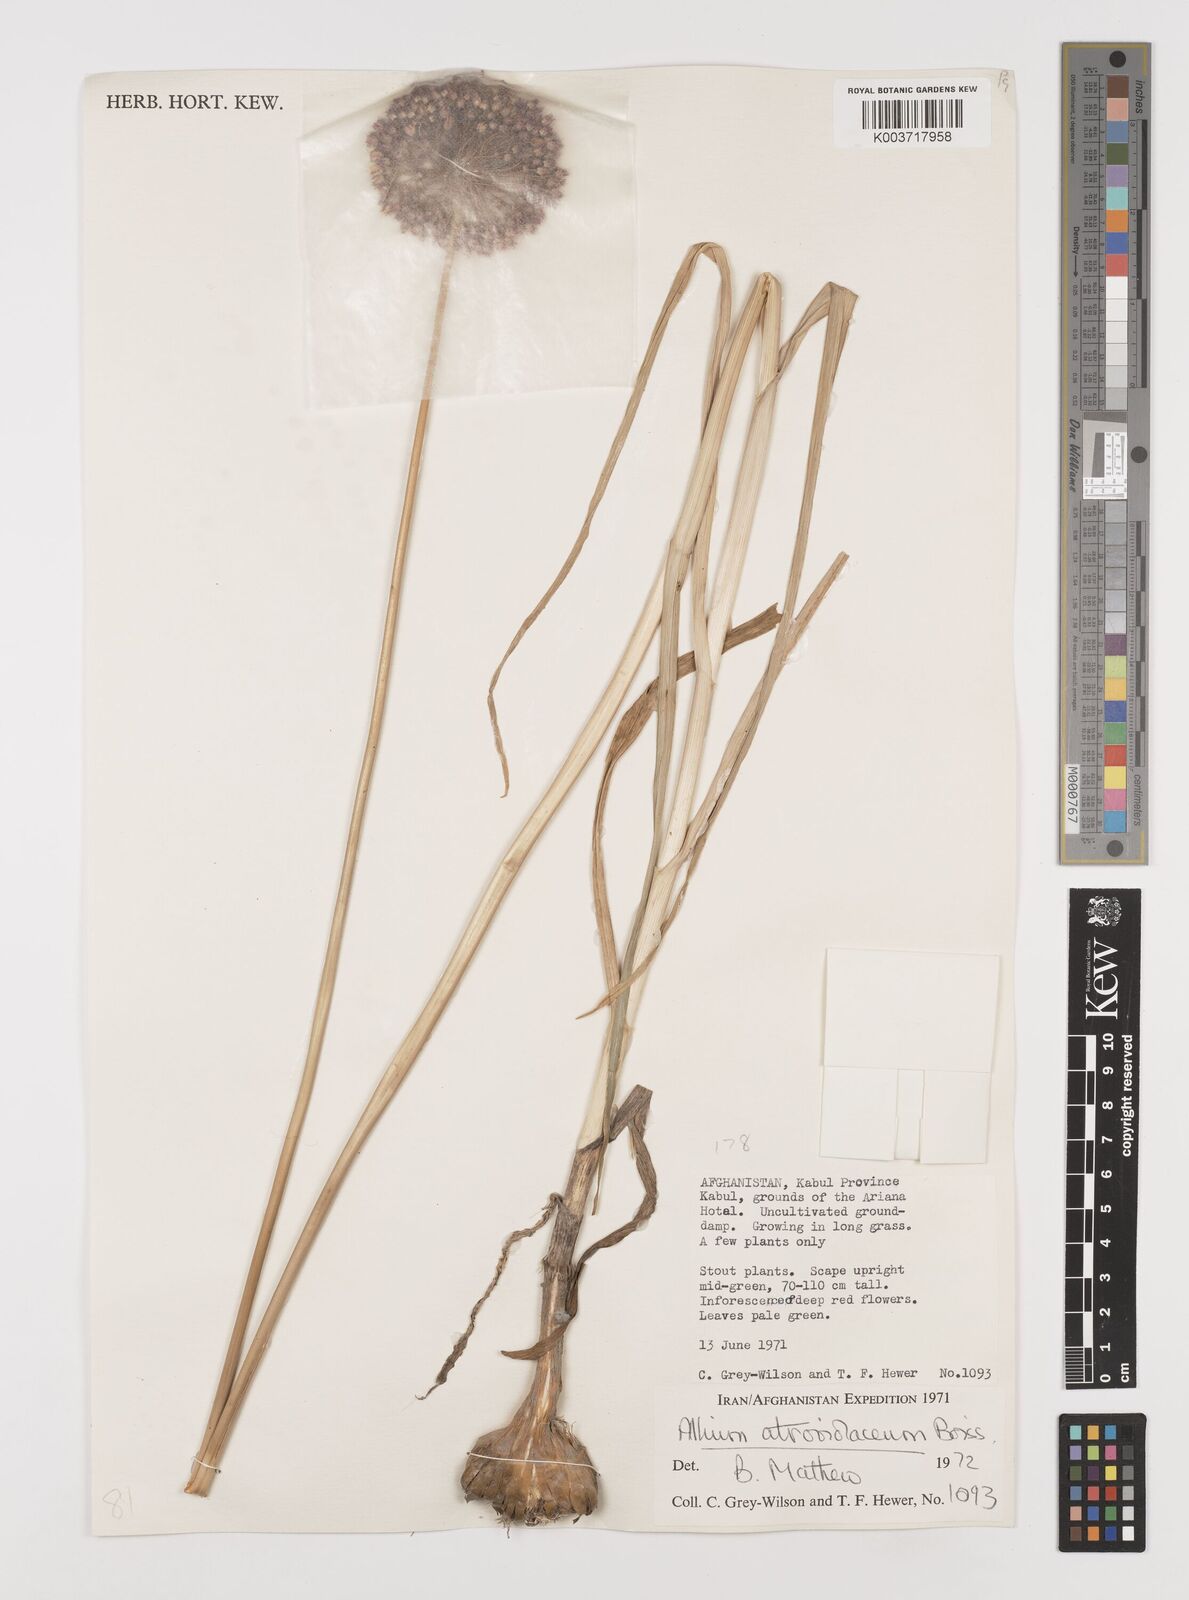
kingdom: Plantae
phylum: Tracheophyta
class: Liliopsida
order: Asparagales
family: Amaryllidaceae
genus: Allium
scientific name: Allium atroviolaceum
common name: Broadleaf wild leek
